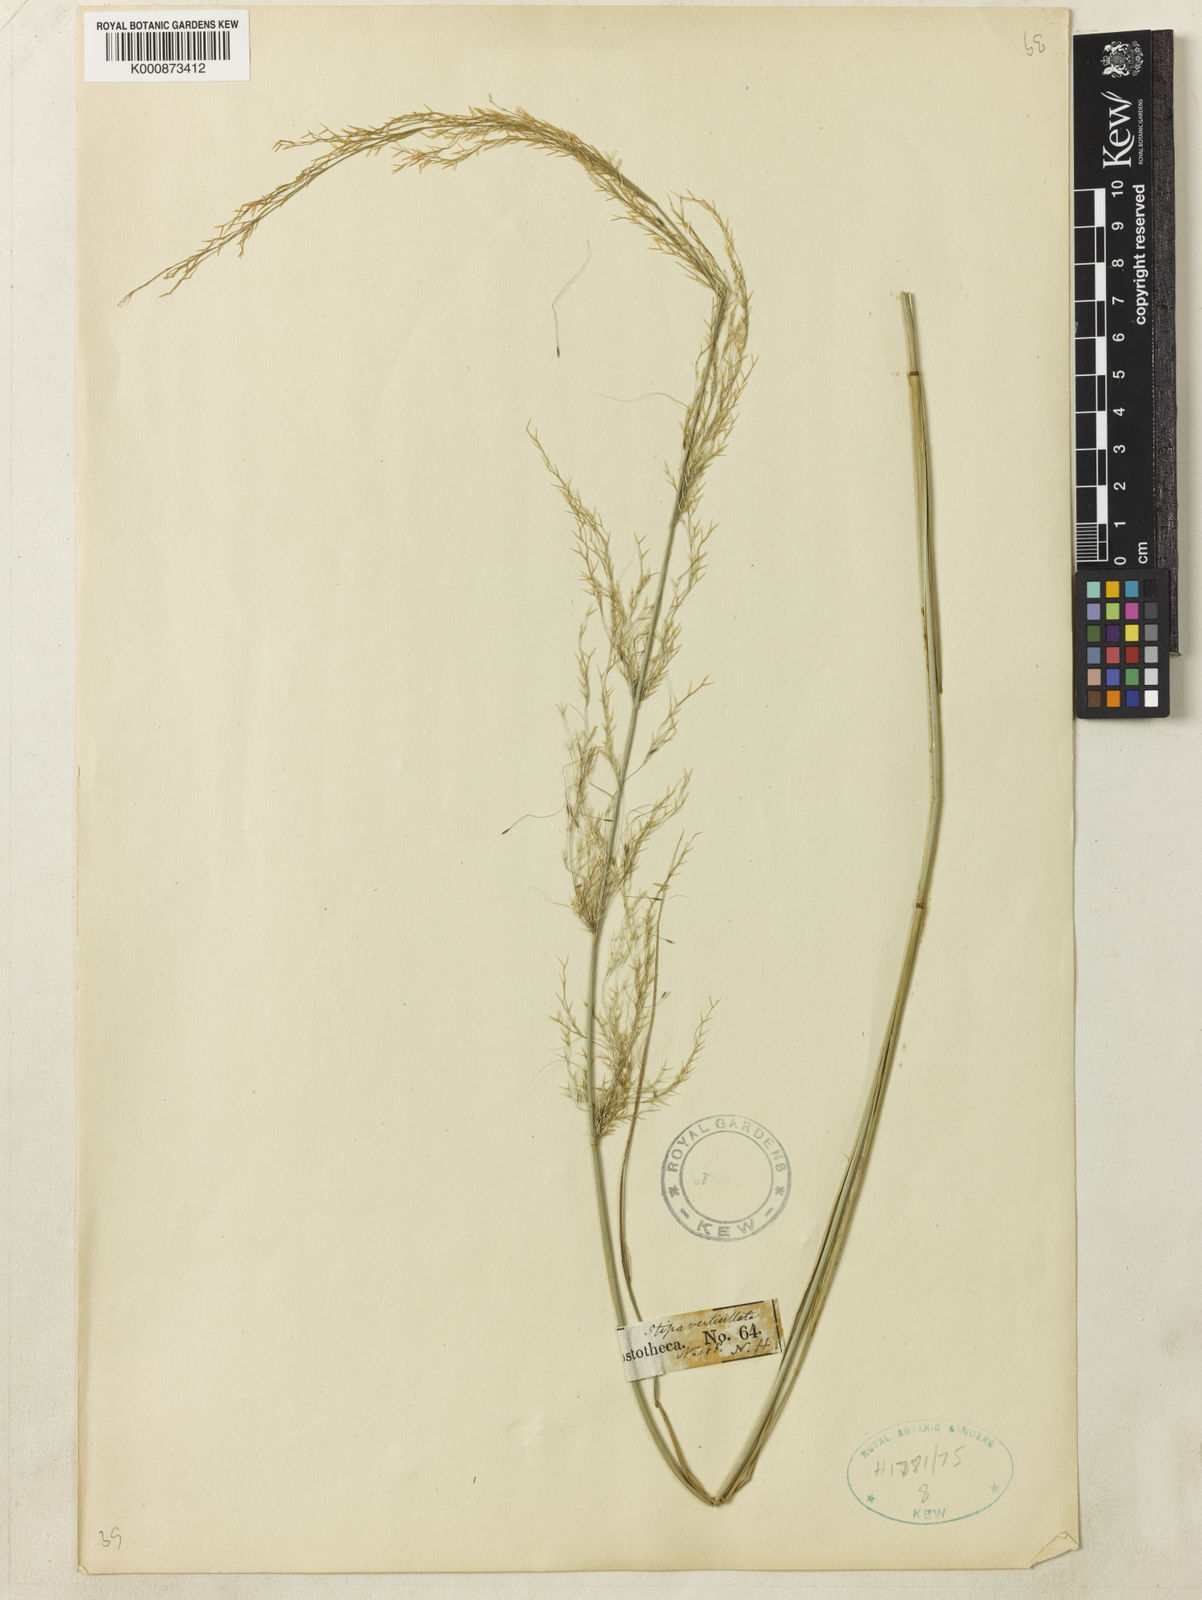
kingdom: Plantae
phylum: Tracheophyta
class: Liliopsida
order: Poales
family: Poaceae
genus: Austrostipa
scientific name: Austrostipa verticillata
